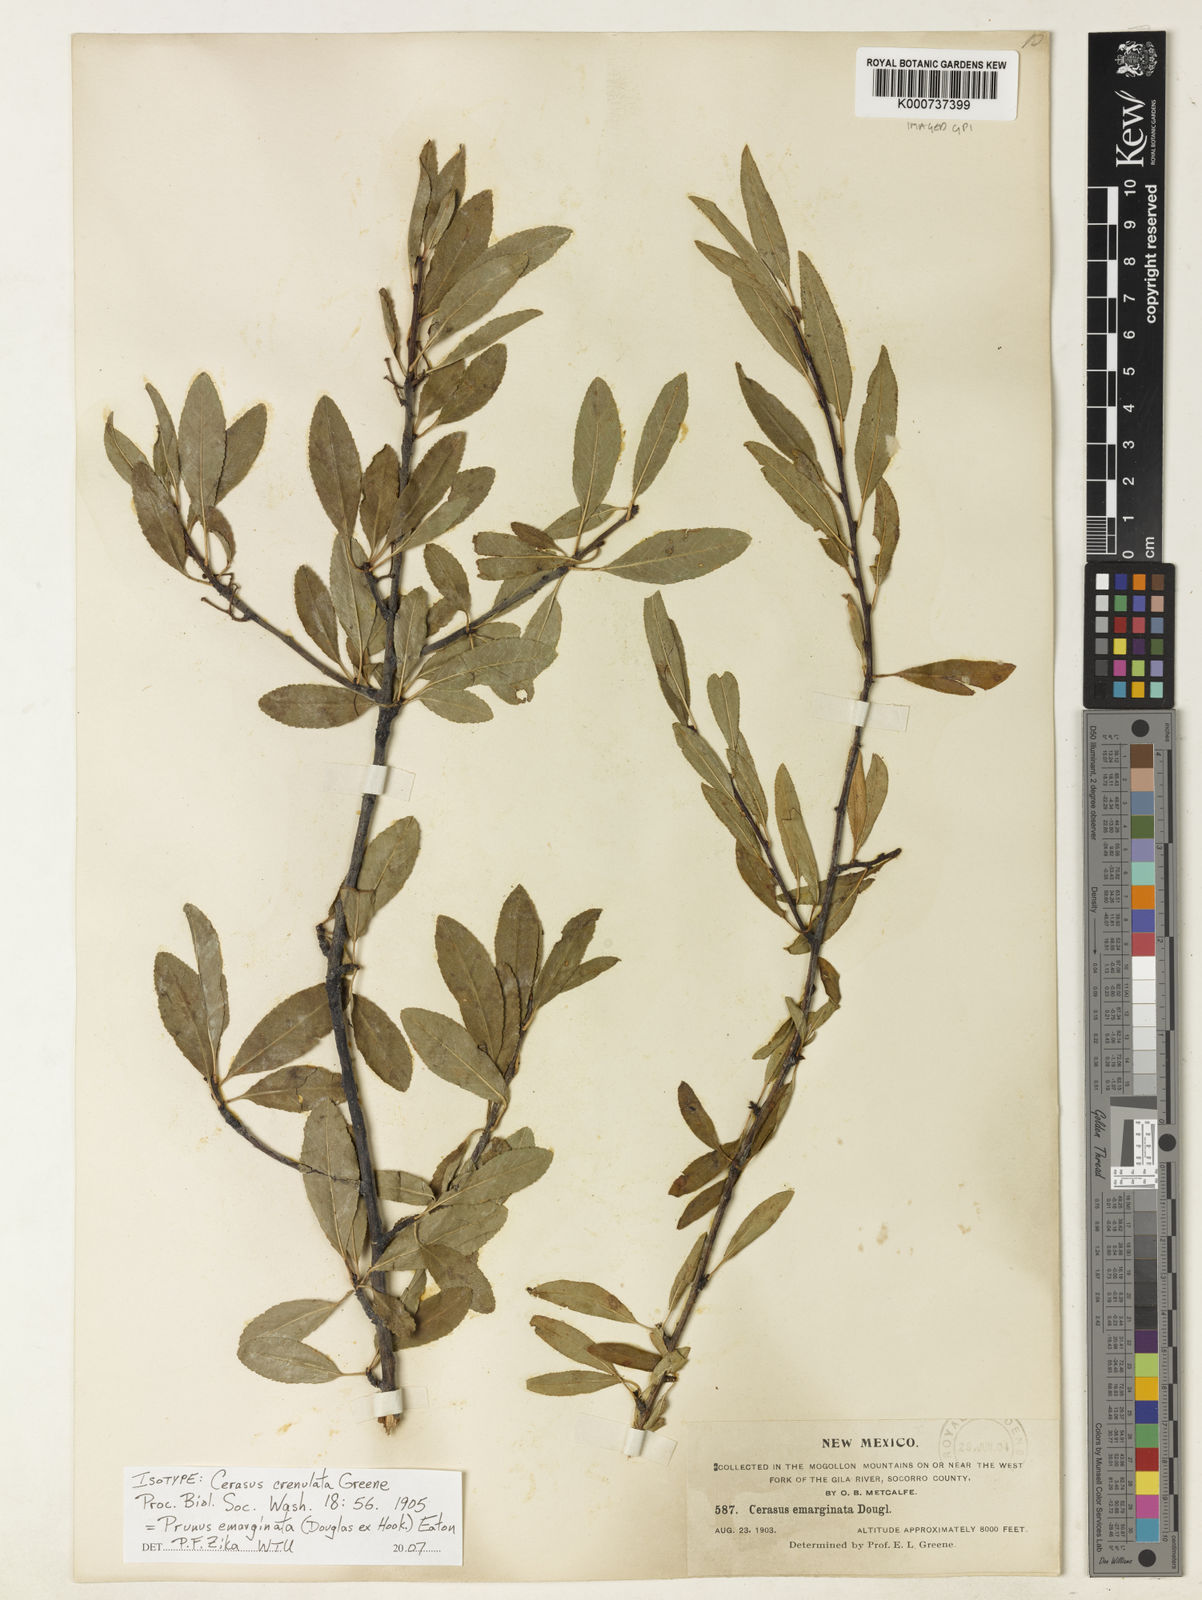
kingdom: Plantae
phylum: Tracheophyta
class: Magnoliopsida
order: Rosales
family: Rosaceae
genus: Prunus
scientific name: Prunus
